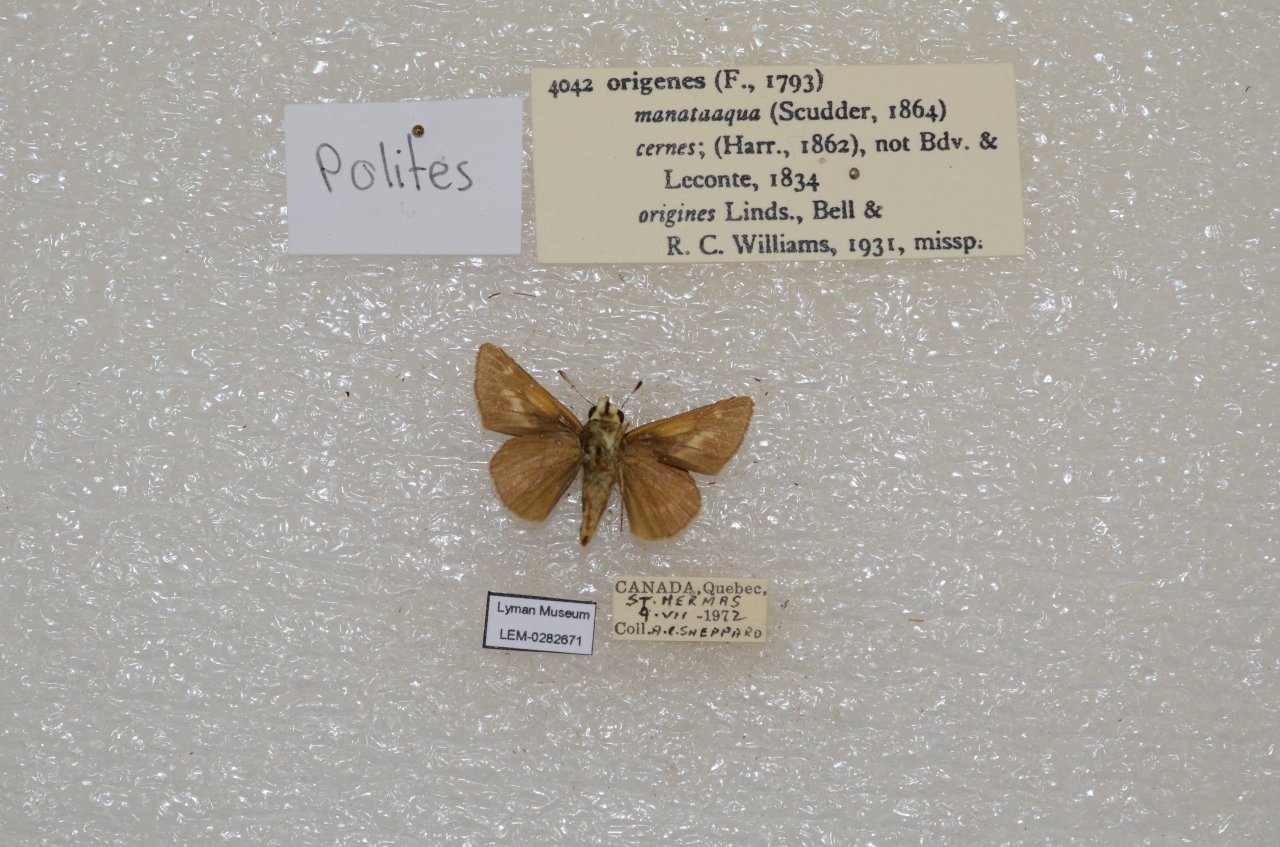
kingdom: Animalia
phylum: Arthropoda
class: Insecta
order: Lepidoptera
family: Hesperiidae
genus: Polites
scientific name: Polites
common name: Crossline Skipper
